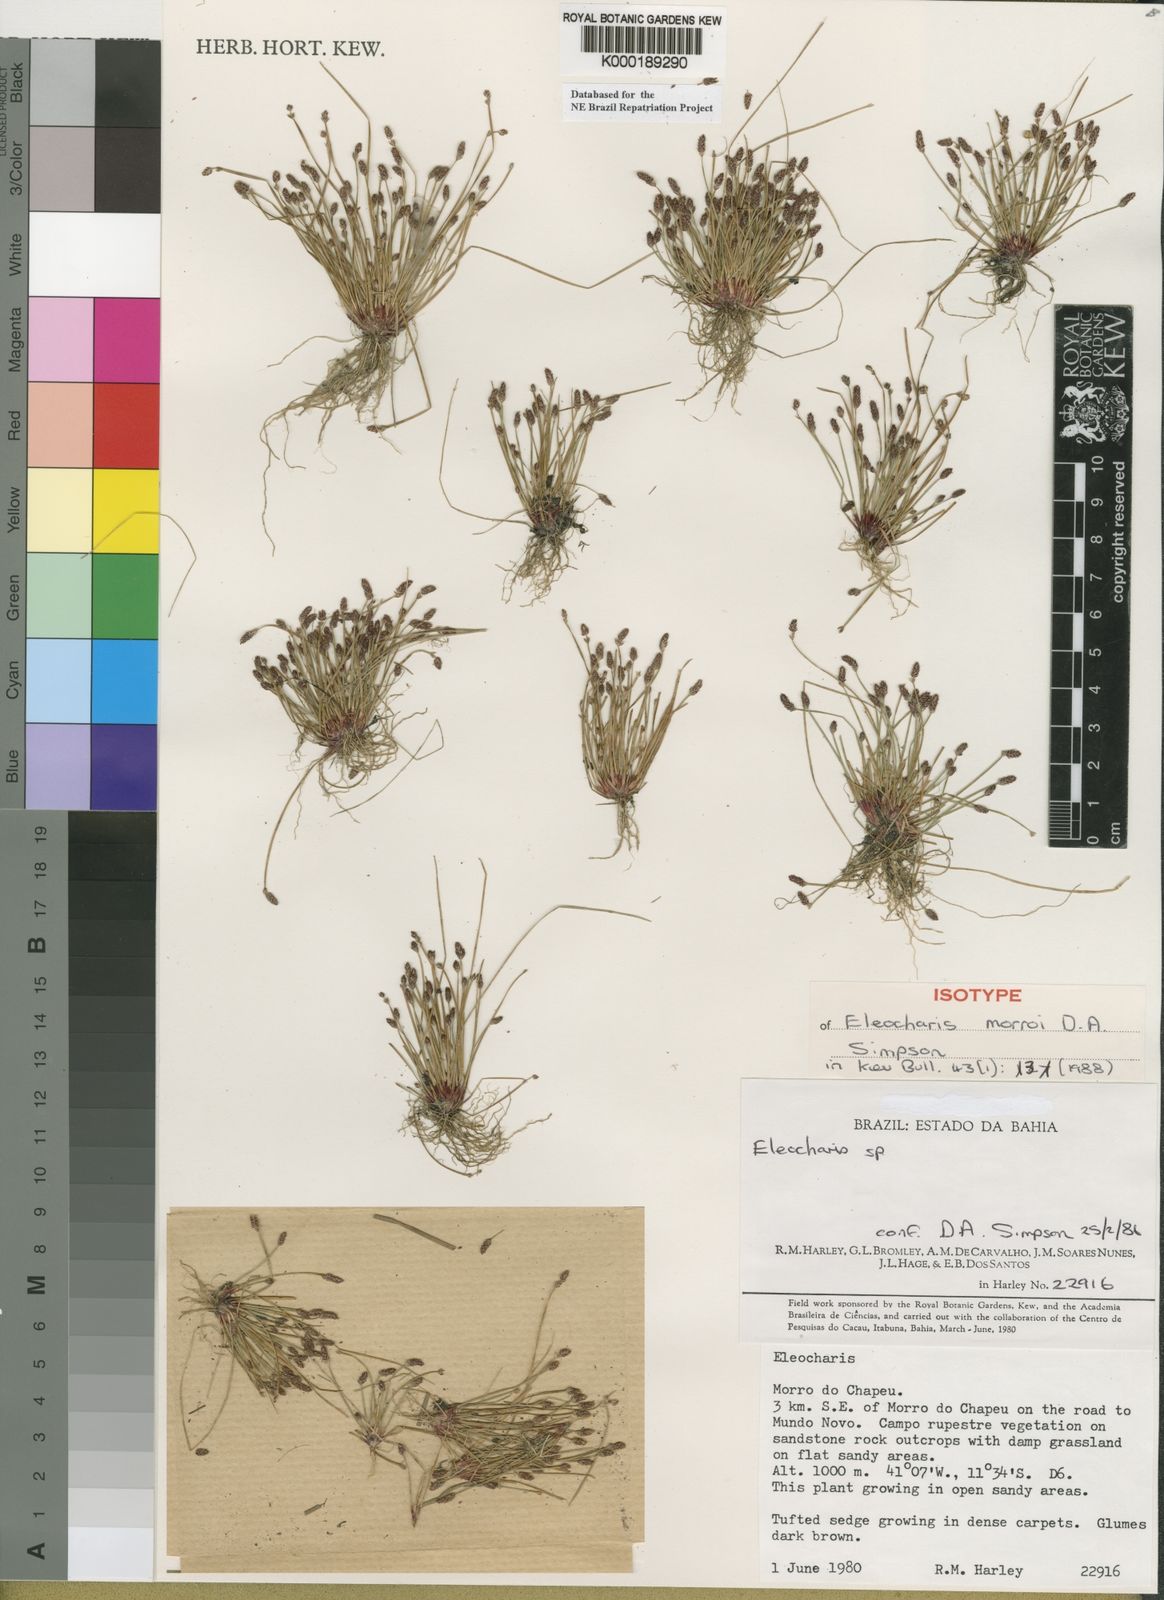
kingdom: Plantae
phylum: Tracheophyta
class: Liliopsida
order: Poales
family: Cyperaceae
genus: Eleocharis
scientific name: Eleocharis morroi
